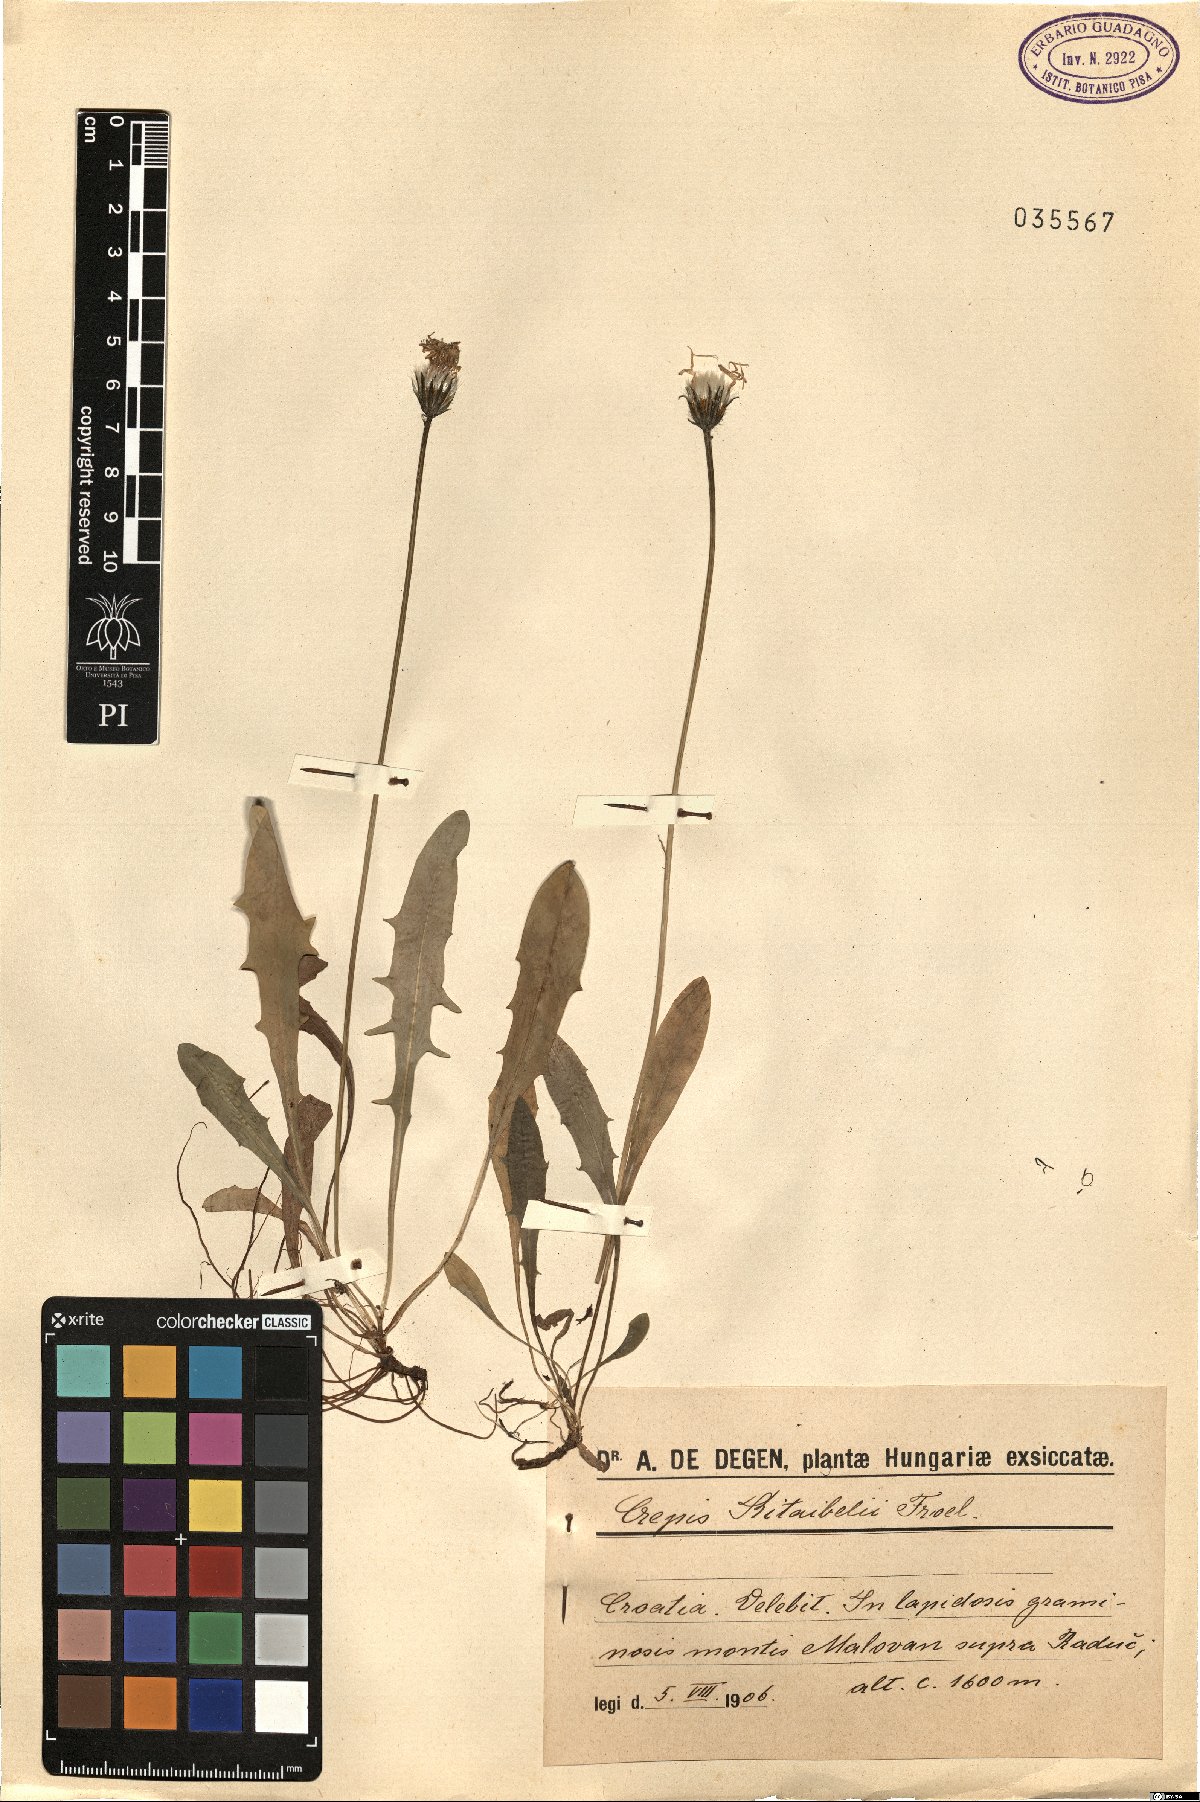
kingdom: Plantae
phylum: Tracheophyta
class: Magnoliopsida
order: Asterales
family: Asteraceae
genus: Crepis
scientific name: Crepis aurea
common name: Golden hawk's-beard
